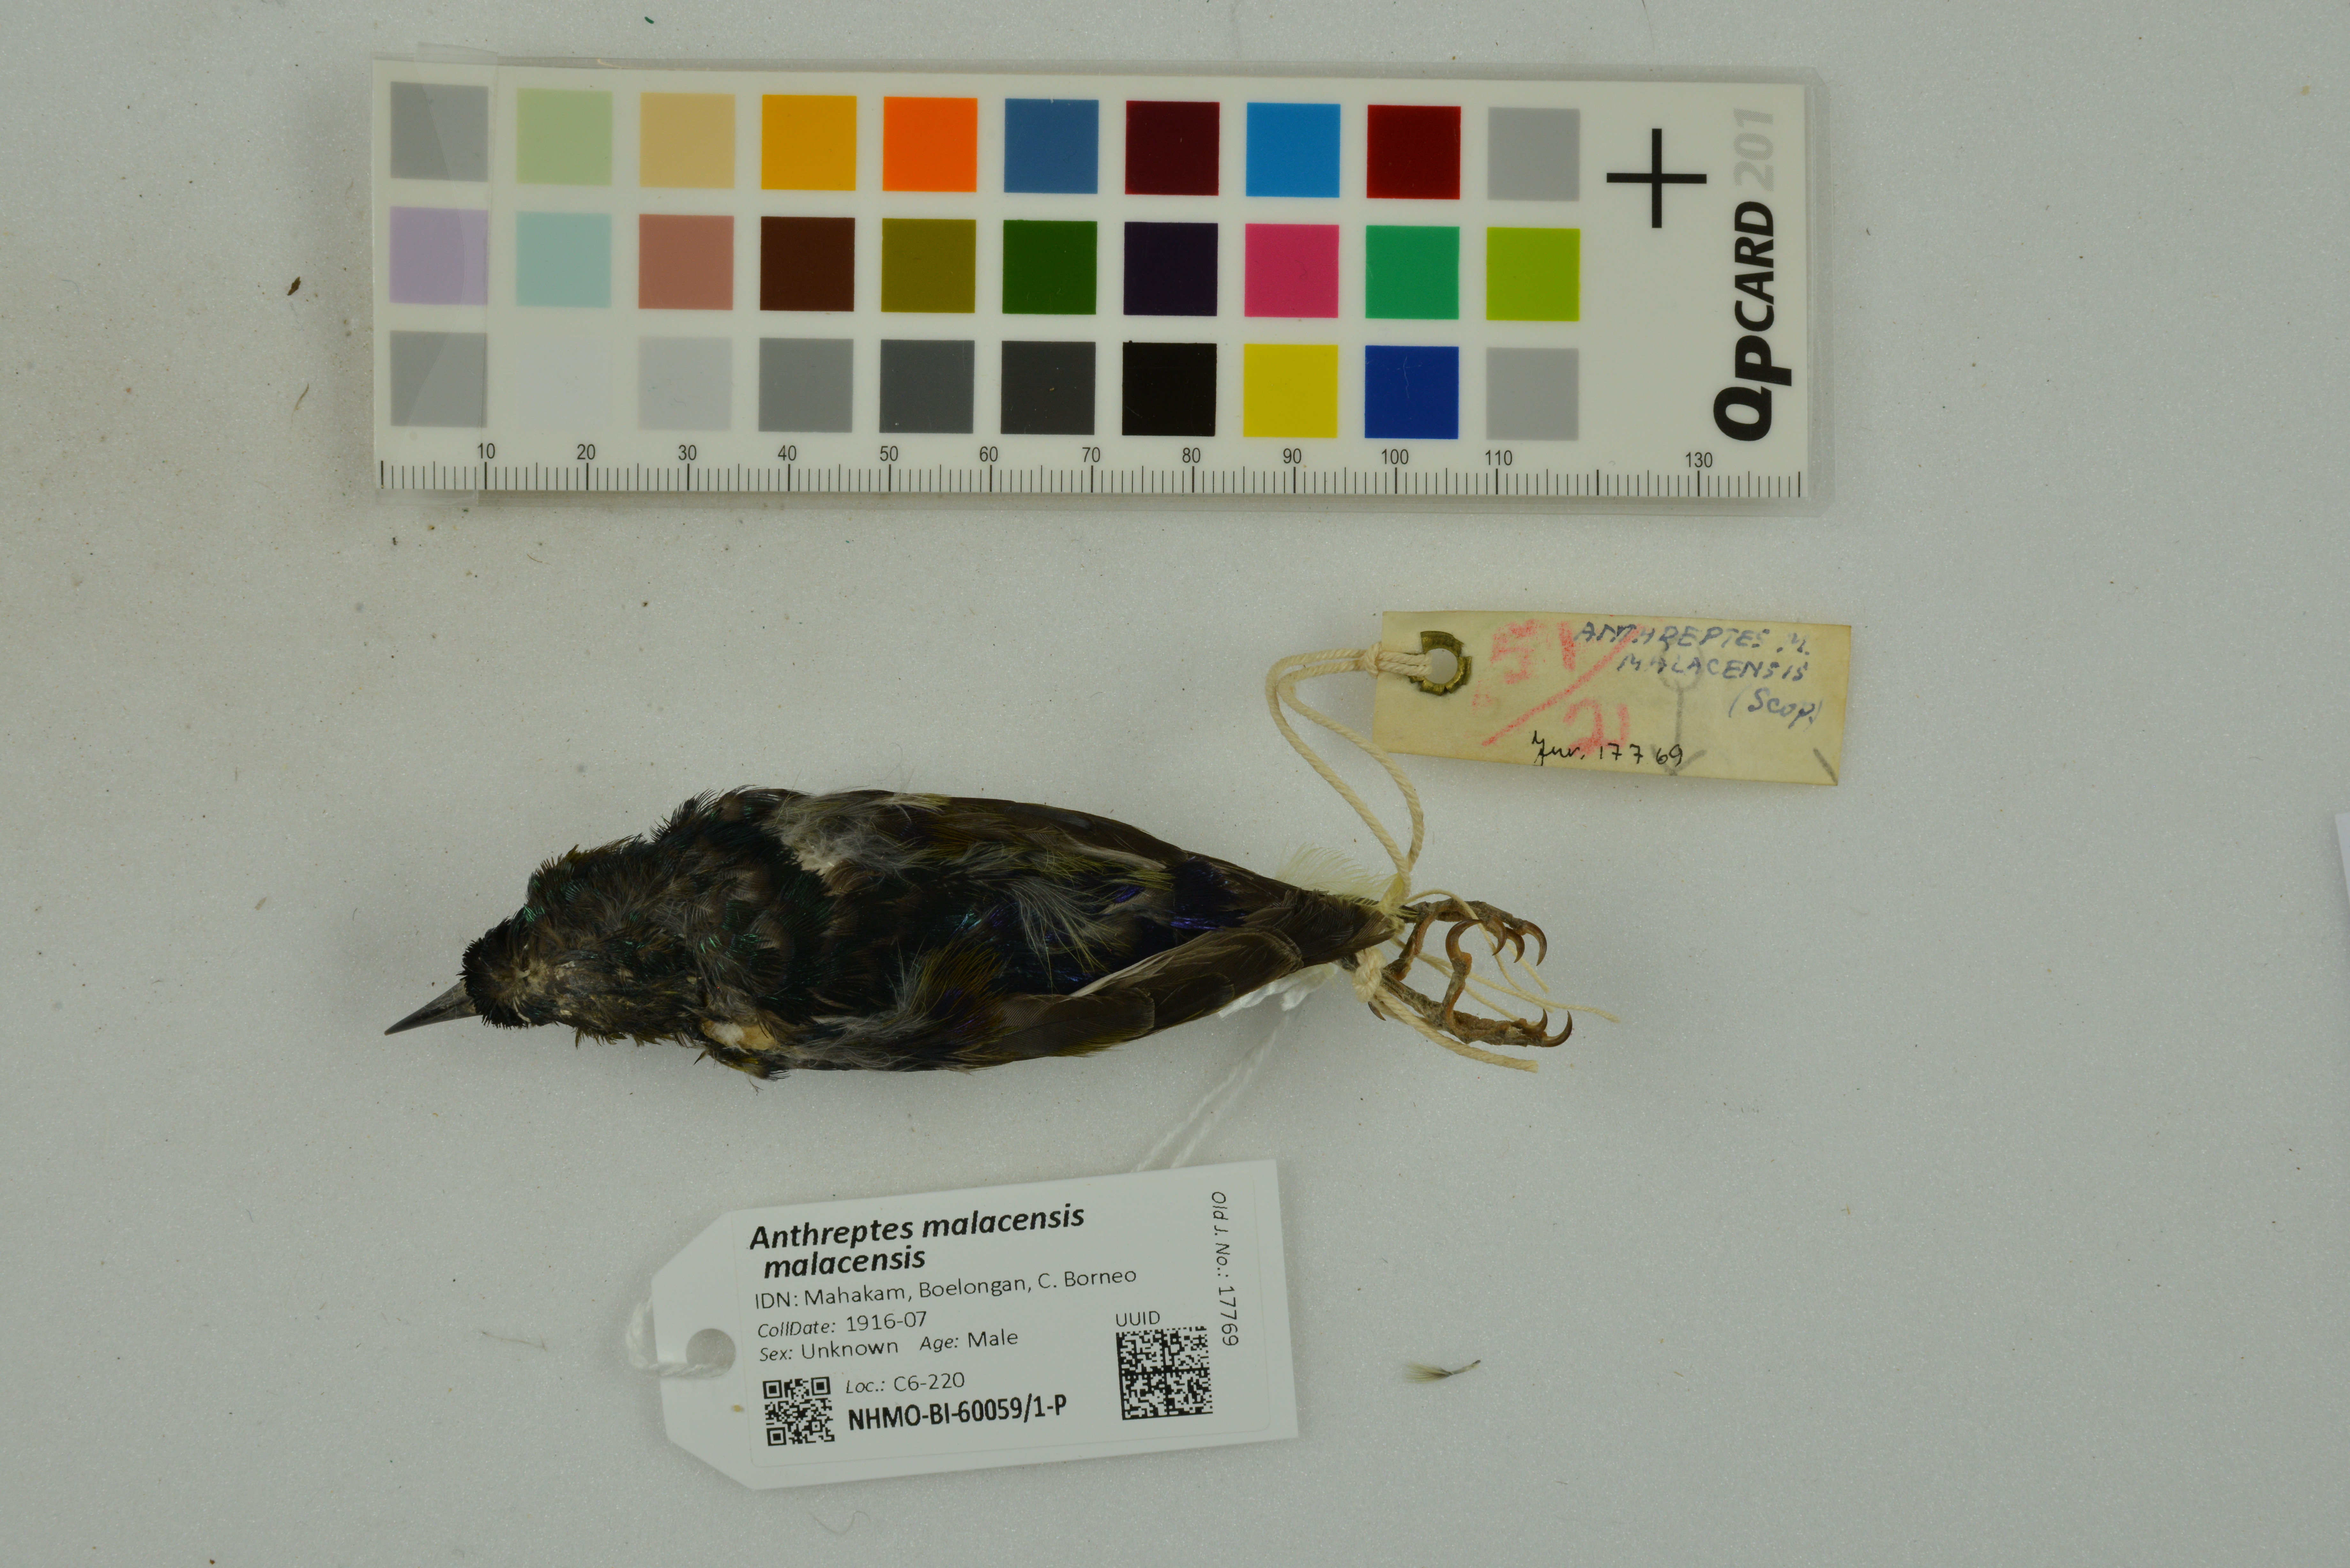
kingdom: Animalia
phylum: Chordata
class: Aves
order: Passeriformes
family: Nectariniidae
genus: Anthreptes
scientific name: Anthreptes malacensis
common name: Brown-throated sunbird
